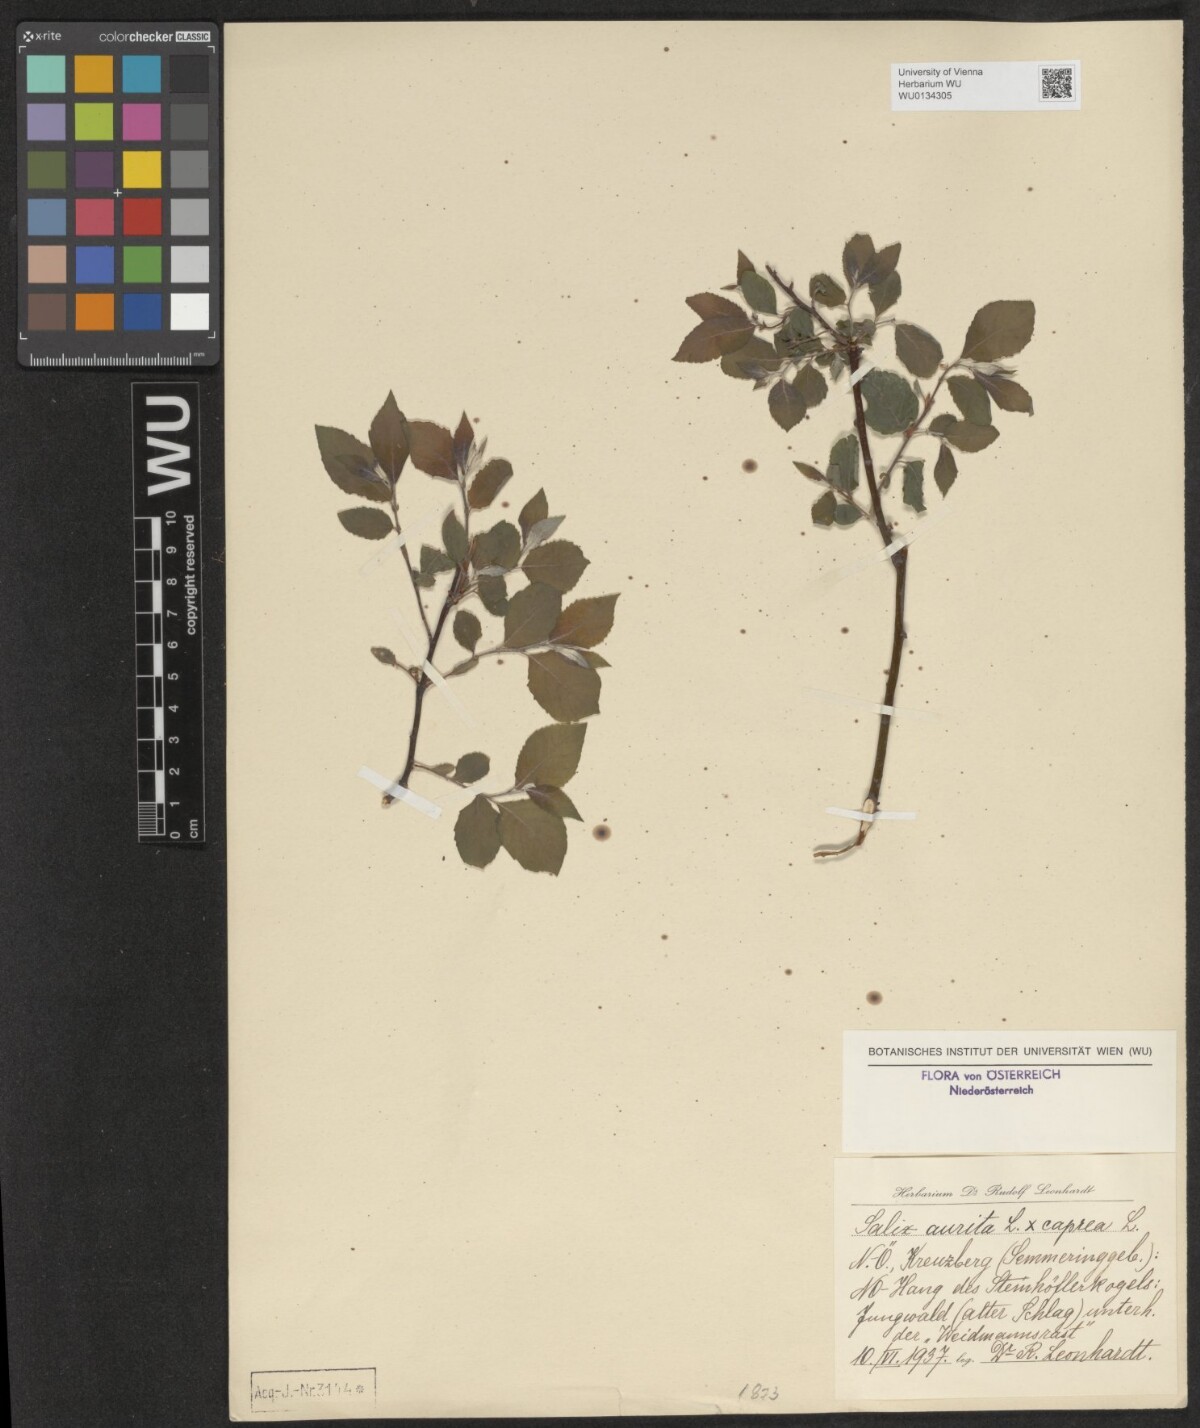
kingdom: Plantae
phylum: Tracheophyta
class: Magnoliopsida
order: Malpighiales
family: Salicaceae
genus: Salix
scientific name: Salix aurita
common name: Eared willow
